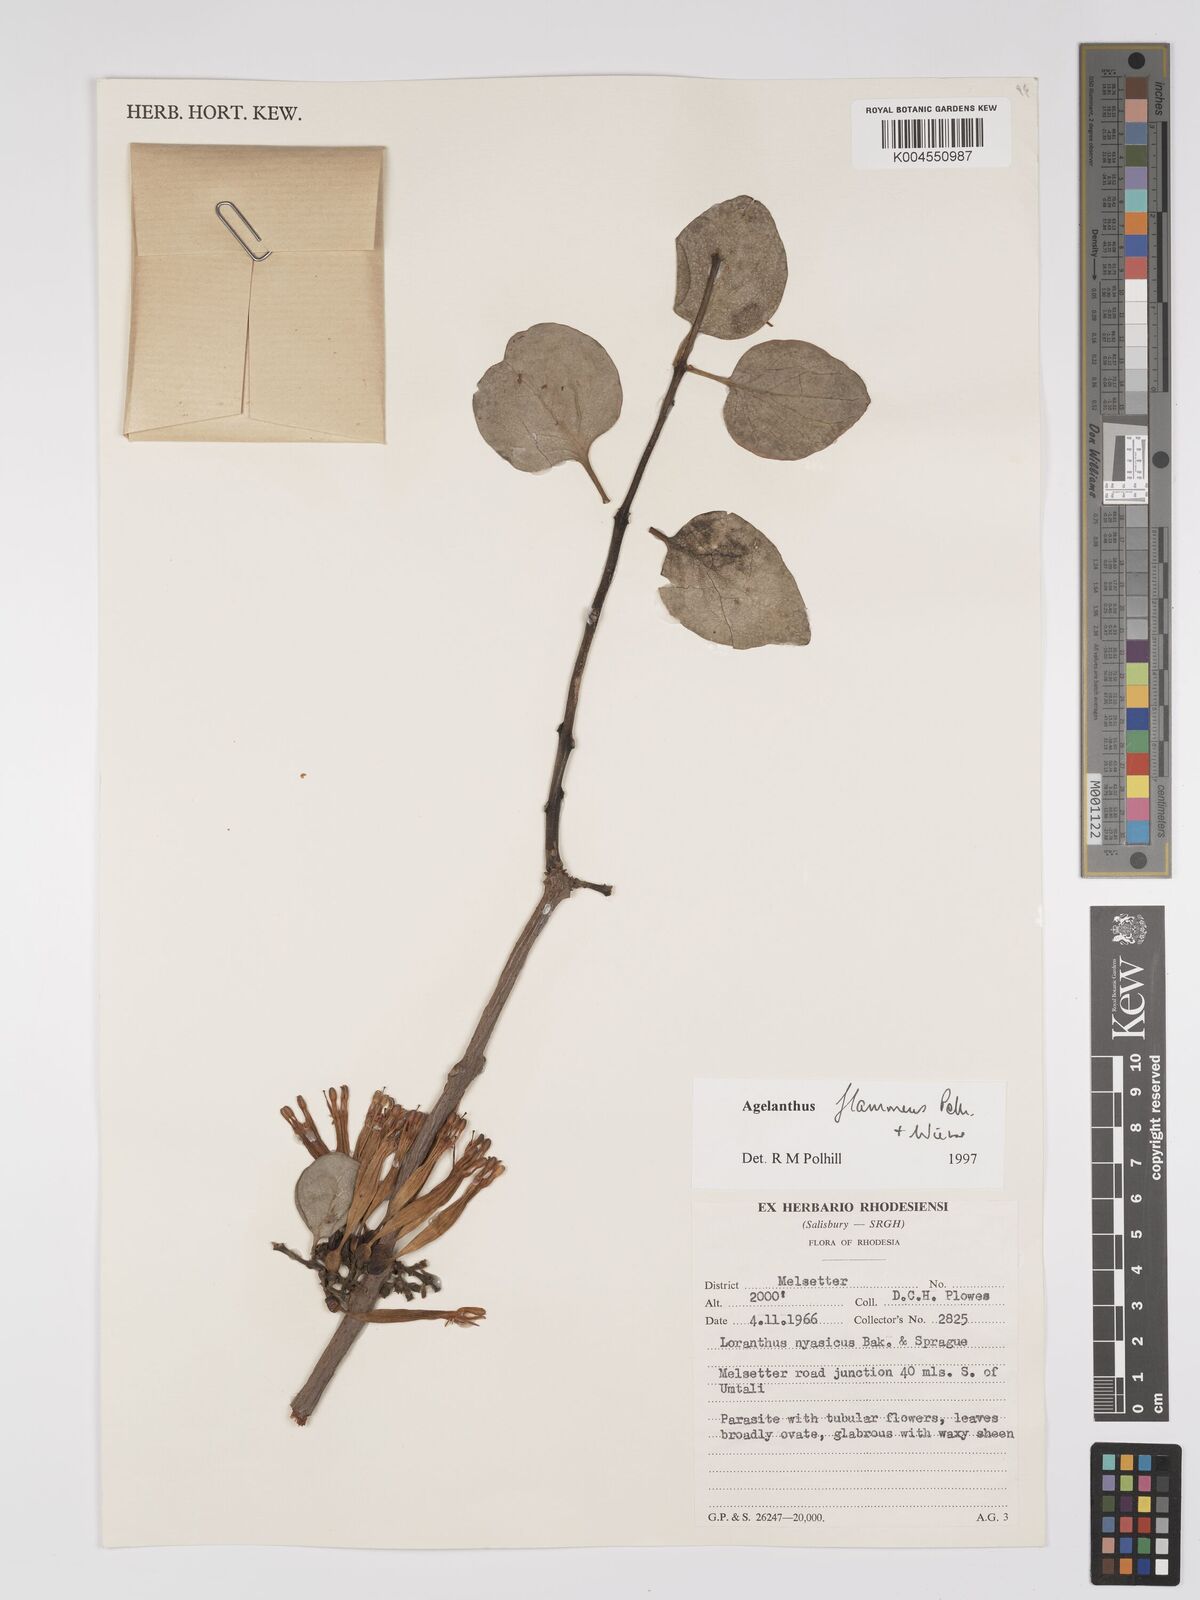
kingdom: Plantae
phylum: Tracheophyta
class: Magnoliopsida
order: Santalales
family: Loranthaceae
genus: Agelanthus
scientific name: Agelanthus flammeus
